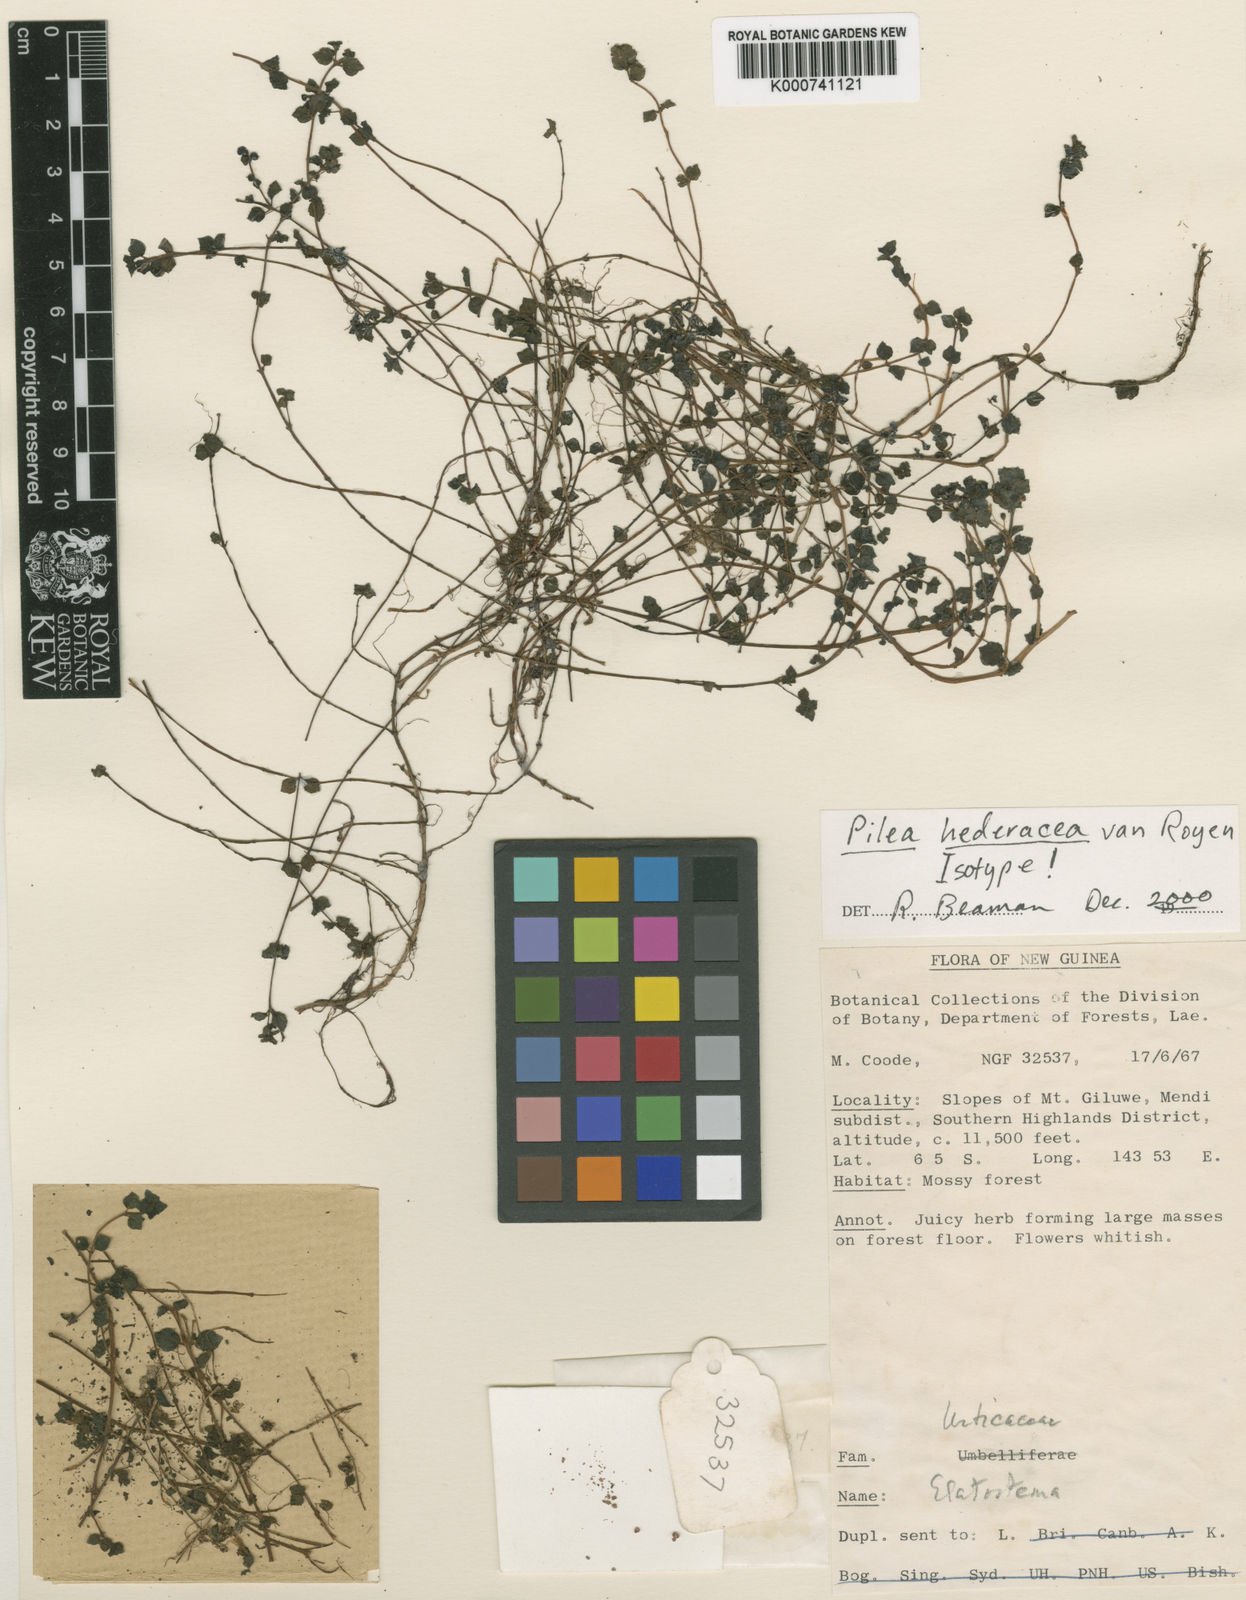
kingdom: Plantae
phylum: Tracheophyta
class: Magnoliopsida
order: Rosales
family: Urticaceae
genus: Pilea
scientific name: Pilea hederacea
